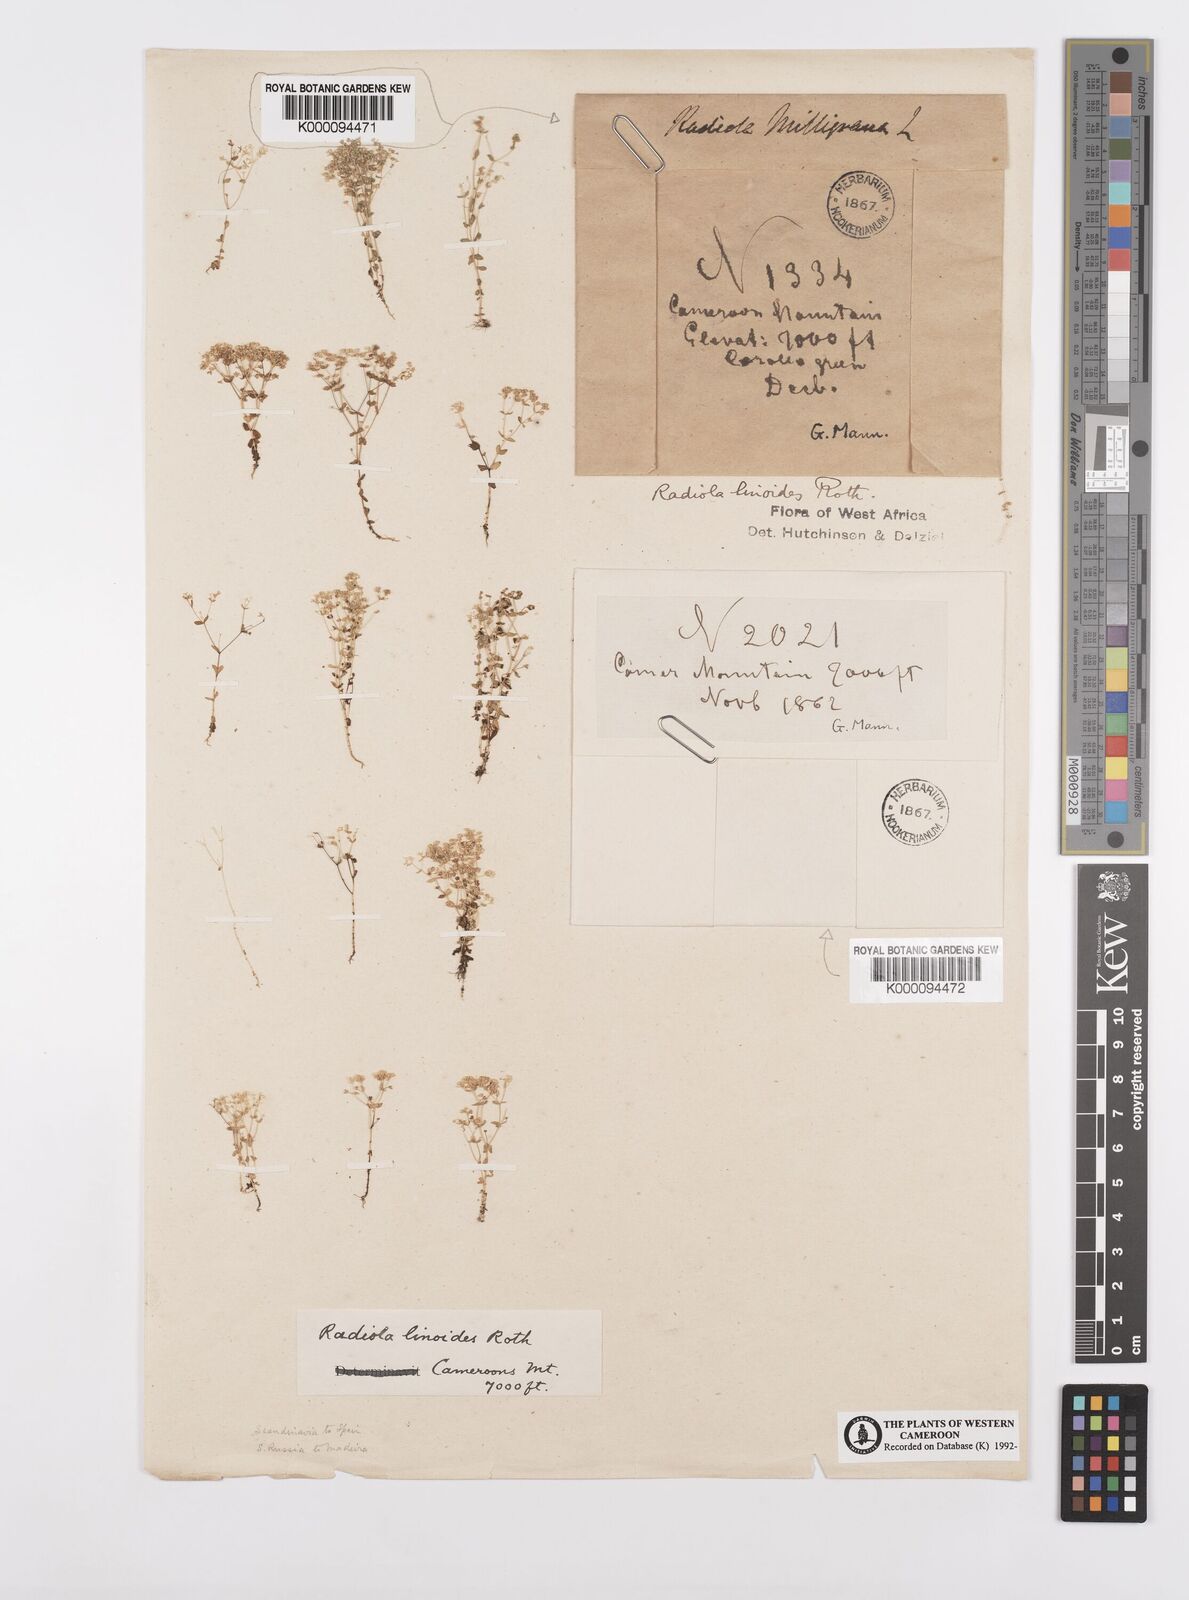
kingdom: Plantae
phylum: Tracheophyta
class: Magnoliopsida
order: Malpighiales
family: Linaceae
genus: Radiola
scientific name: Radiola linoides
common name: Allseed
